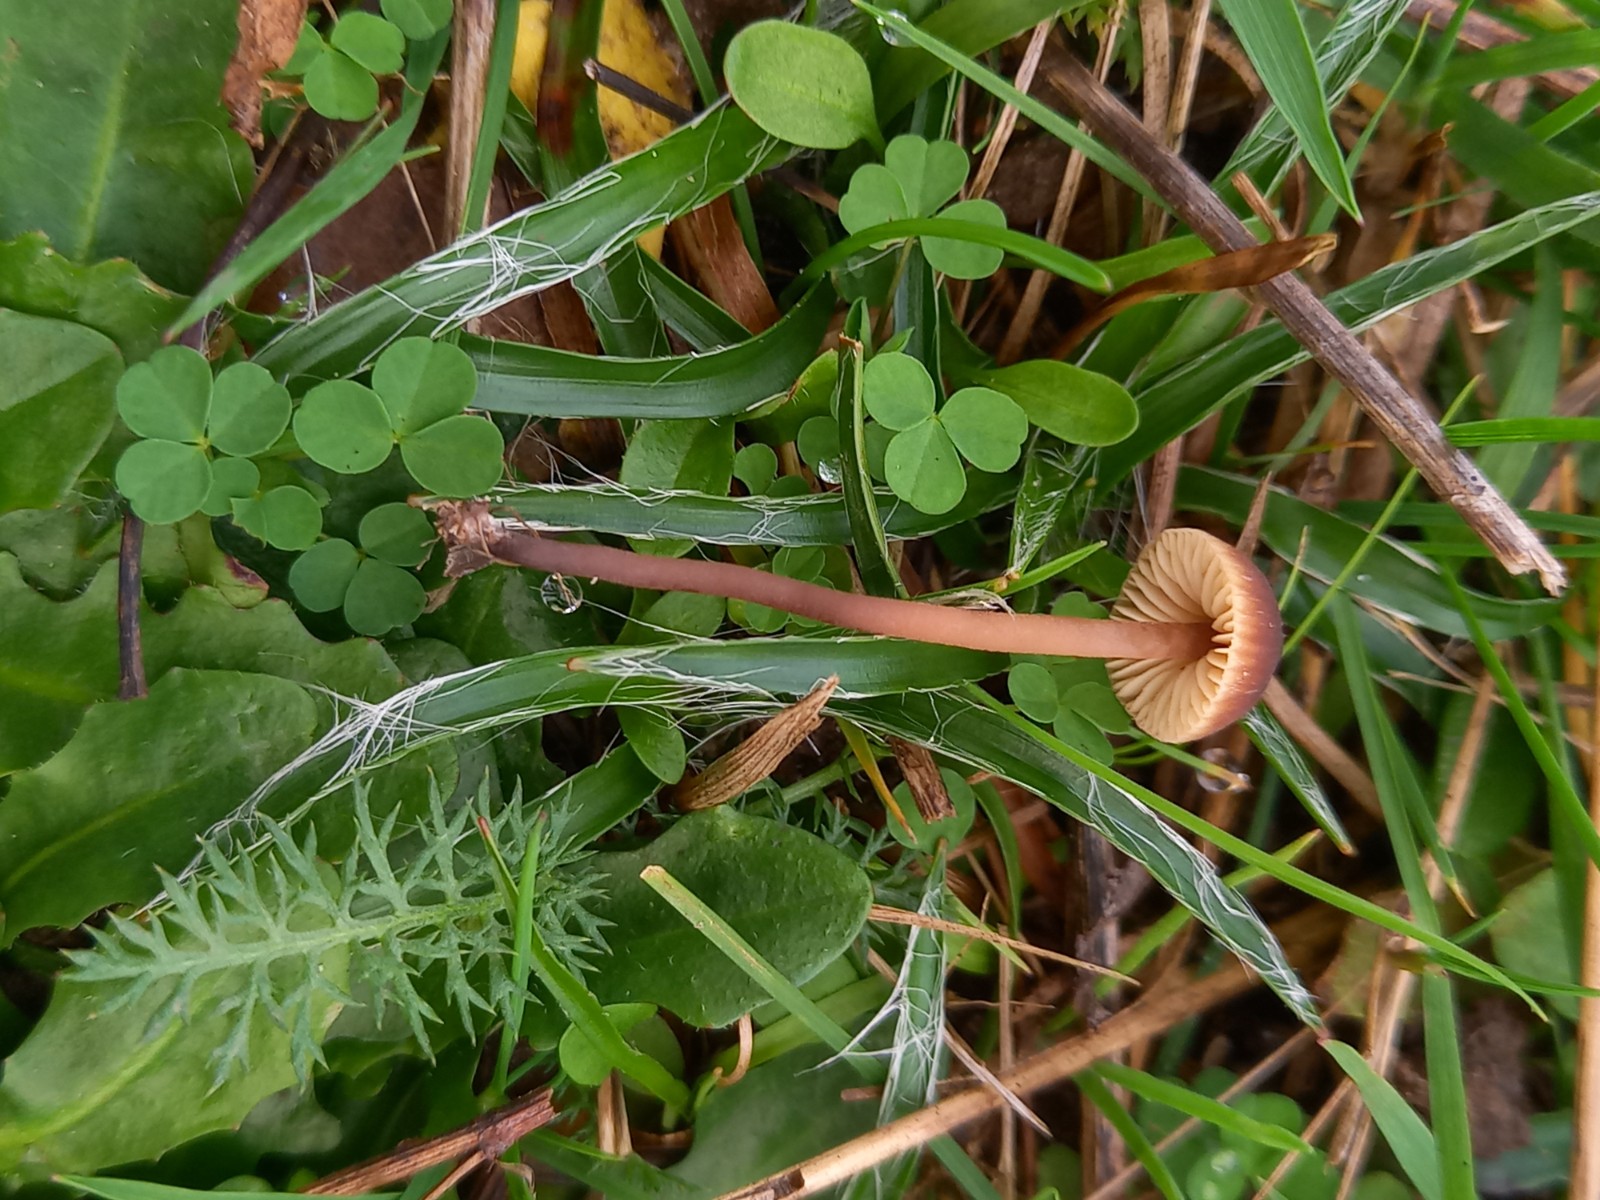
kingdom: Fungi
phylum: Basidiomycota
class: Agaricomycetes
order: Agaricales
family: Macrocystidiaceae
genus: Macrocystidia
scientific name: Macrocystidia cucumis
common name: agurkehat
